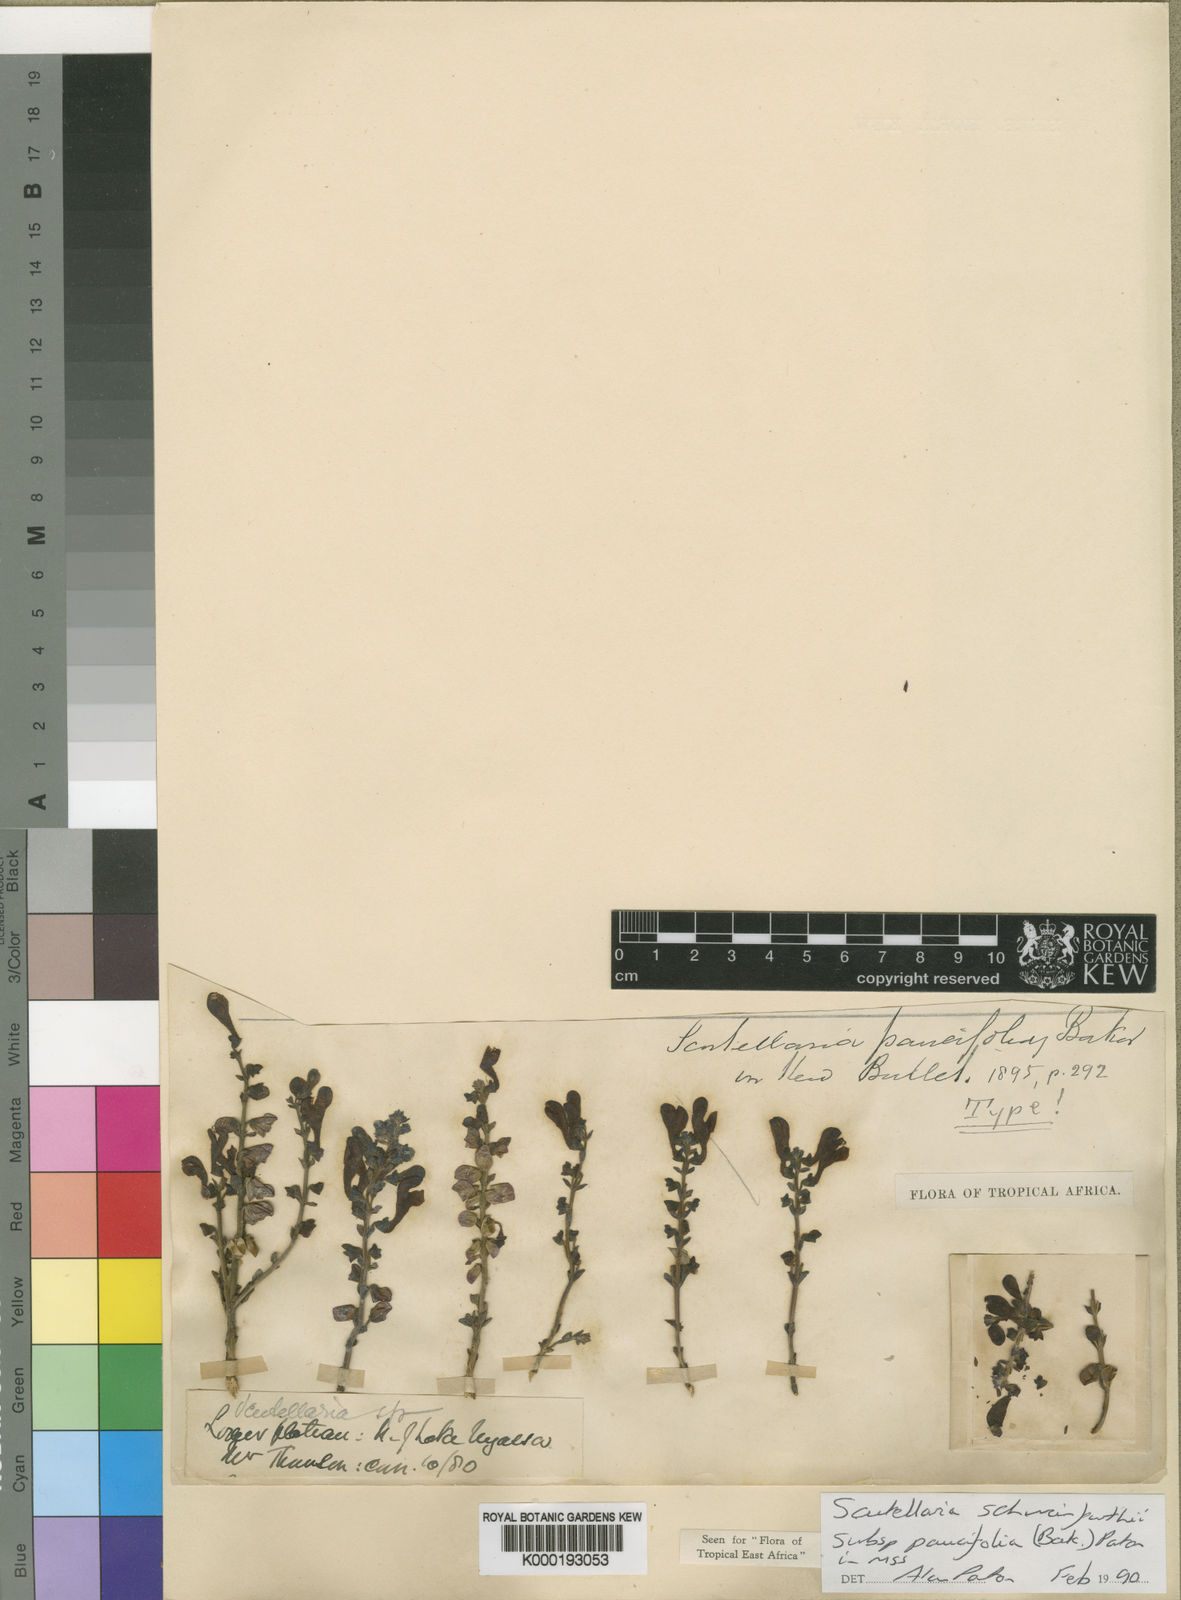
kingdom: Plantae
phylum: Tracheophyta
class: Magnoliopsida
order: Lamiales
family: Lamiaceae
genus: Scutellaria
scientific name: Scutellaria schweinfurthii
